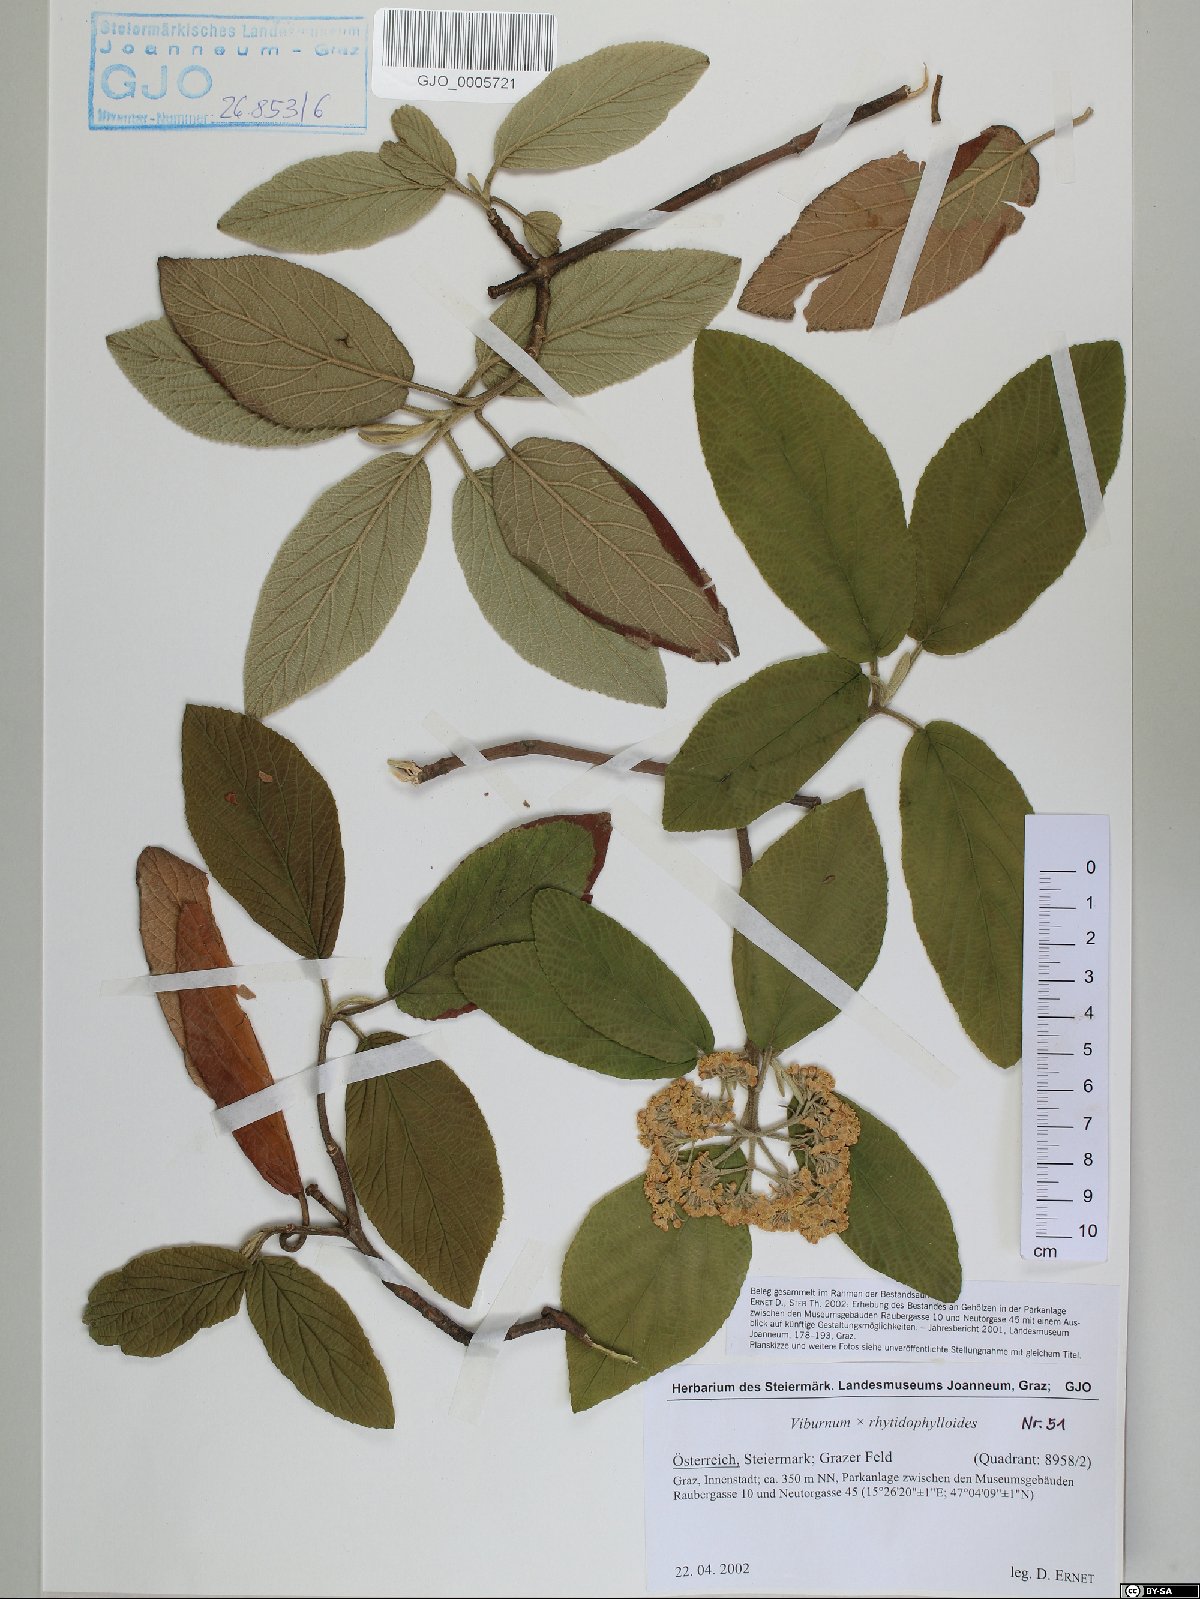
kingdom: Plantae
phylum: Tracheophyta
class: Magnoliopsida
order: Dipsacales
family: Viburnaceae
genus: Viburnum
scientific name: Viburnum rhytidophylloides
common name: Viburnum
